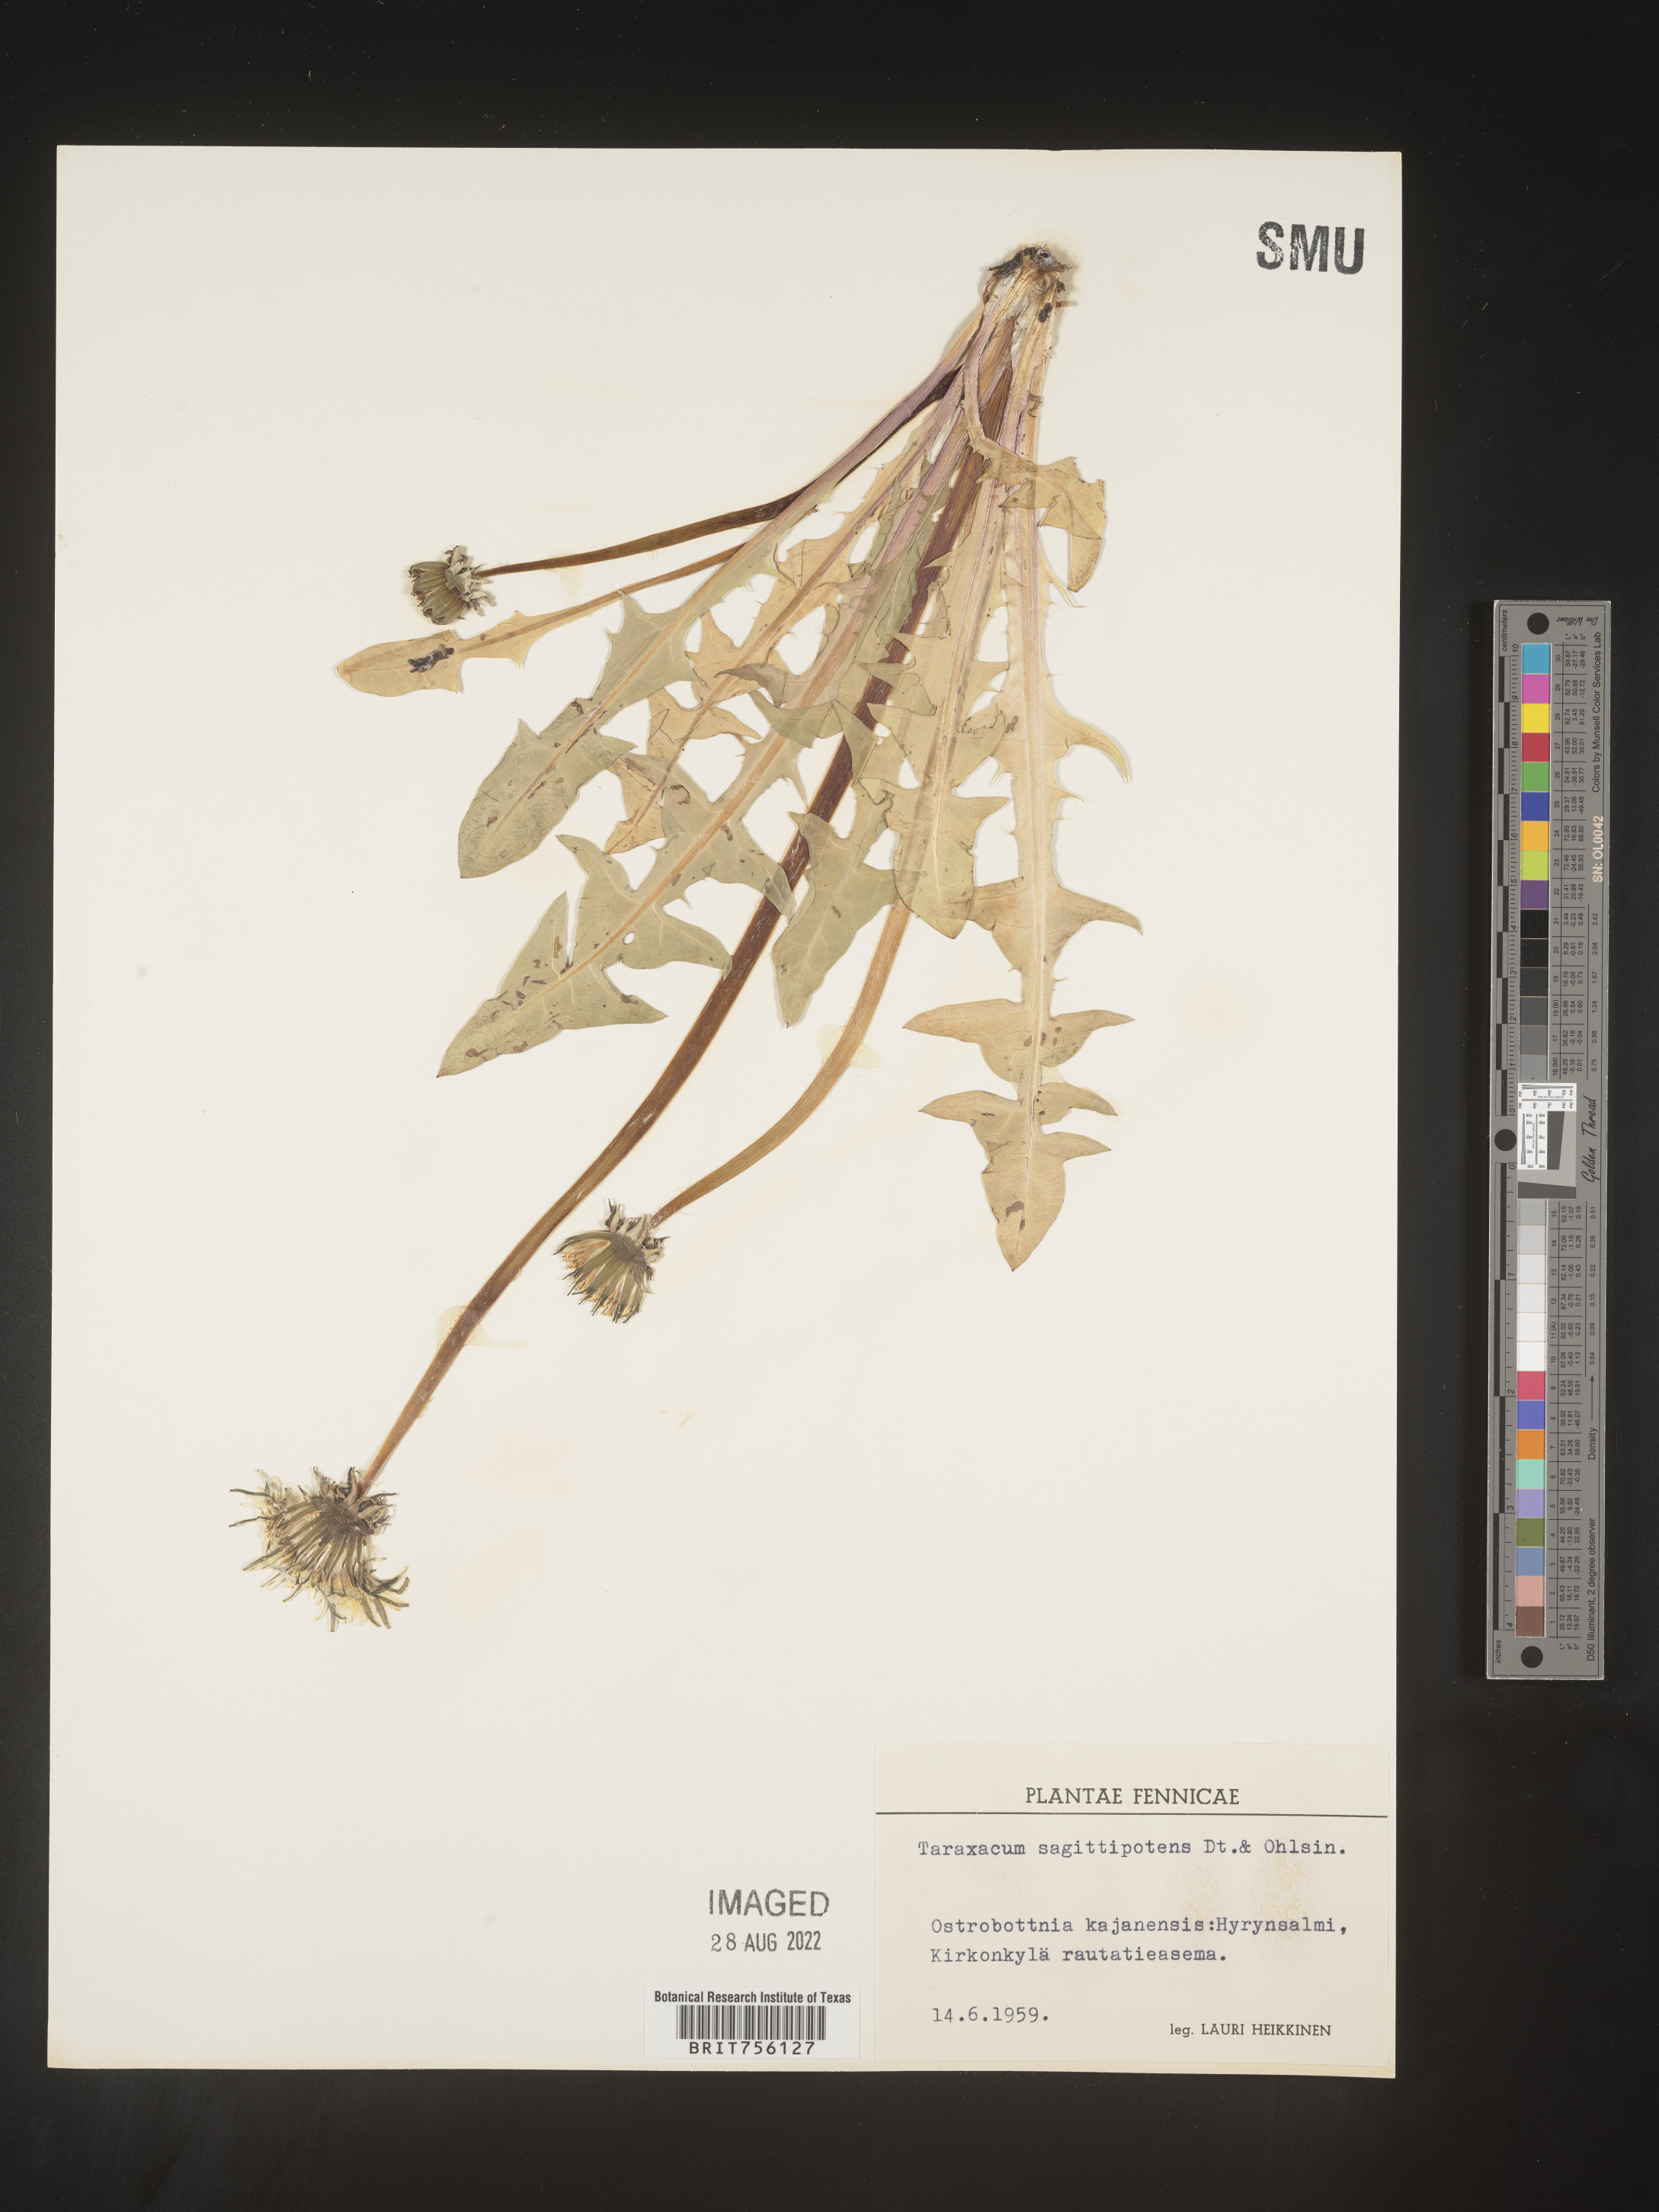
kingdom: Plantae
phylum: Tracheophyta
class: Magnoliopsida
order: Asterales
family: Asteraceae
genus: Taraxacum
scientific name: Taraxacum
